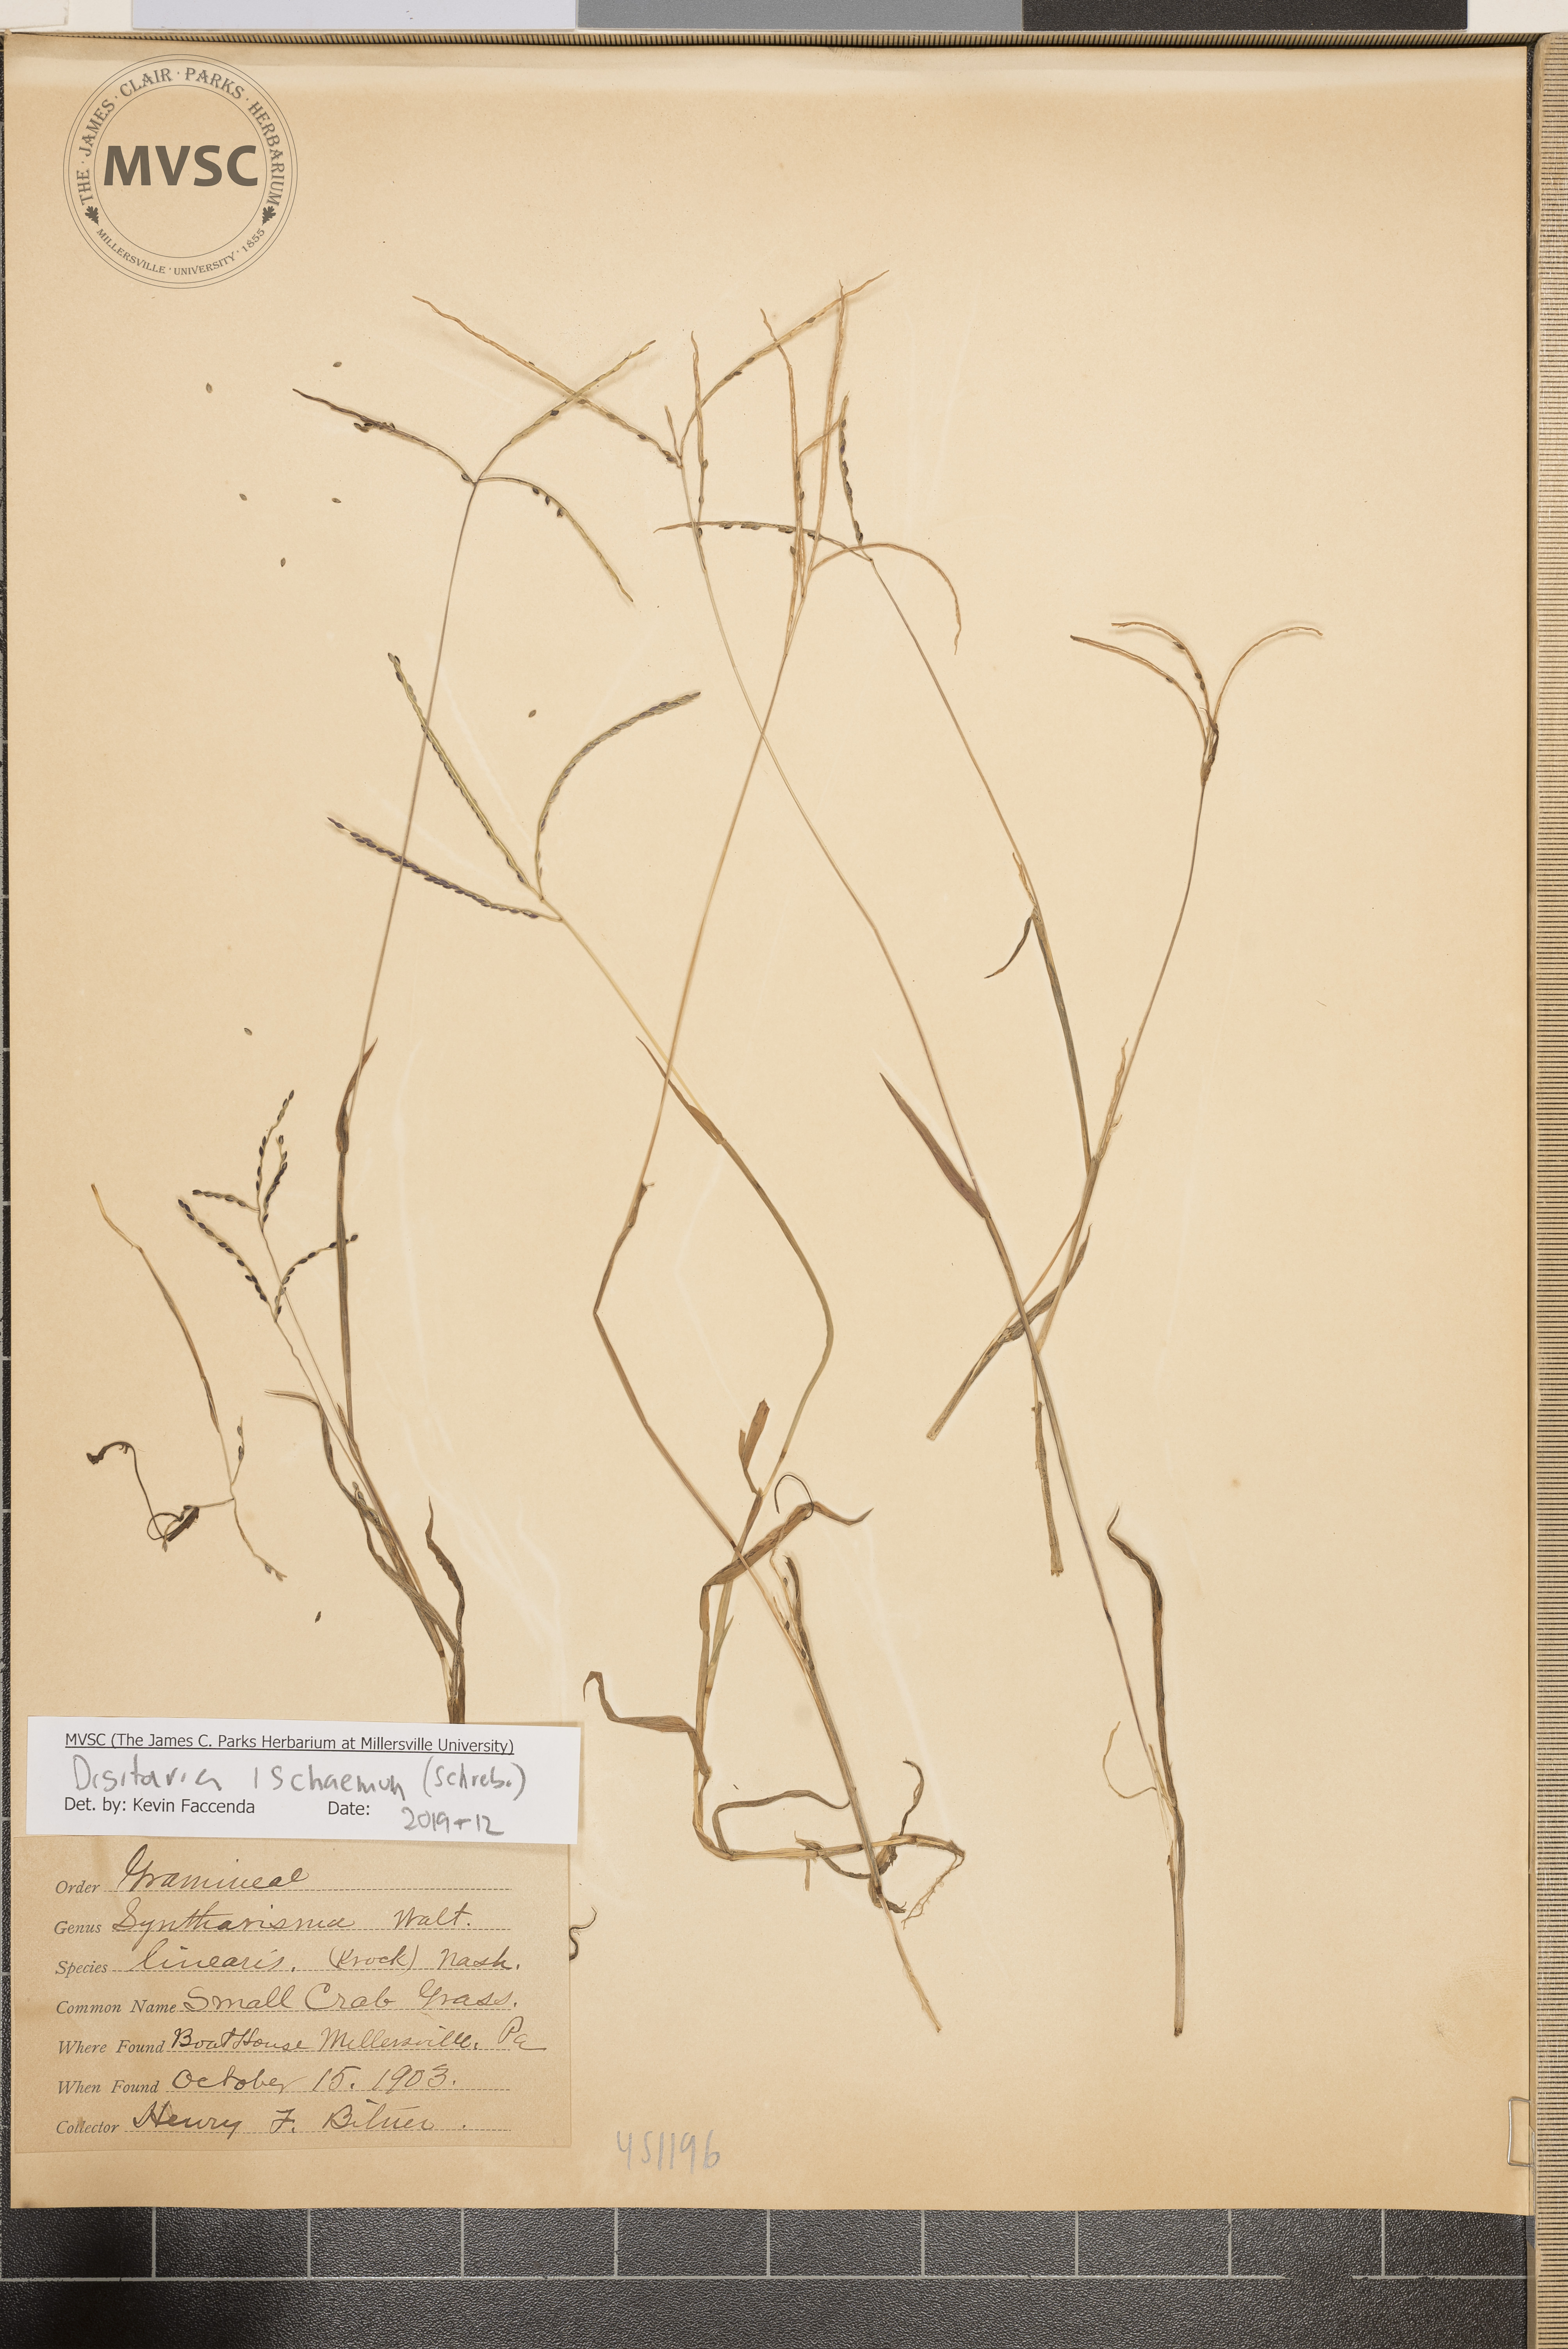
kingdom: Plantae
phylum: Tracheophyta
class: Liliopsida
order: Poales
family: Poaceae
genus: Digitaria
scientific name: Digitaria ischaemum
